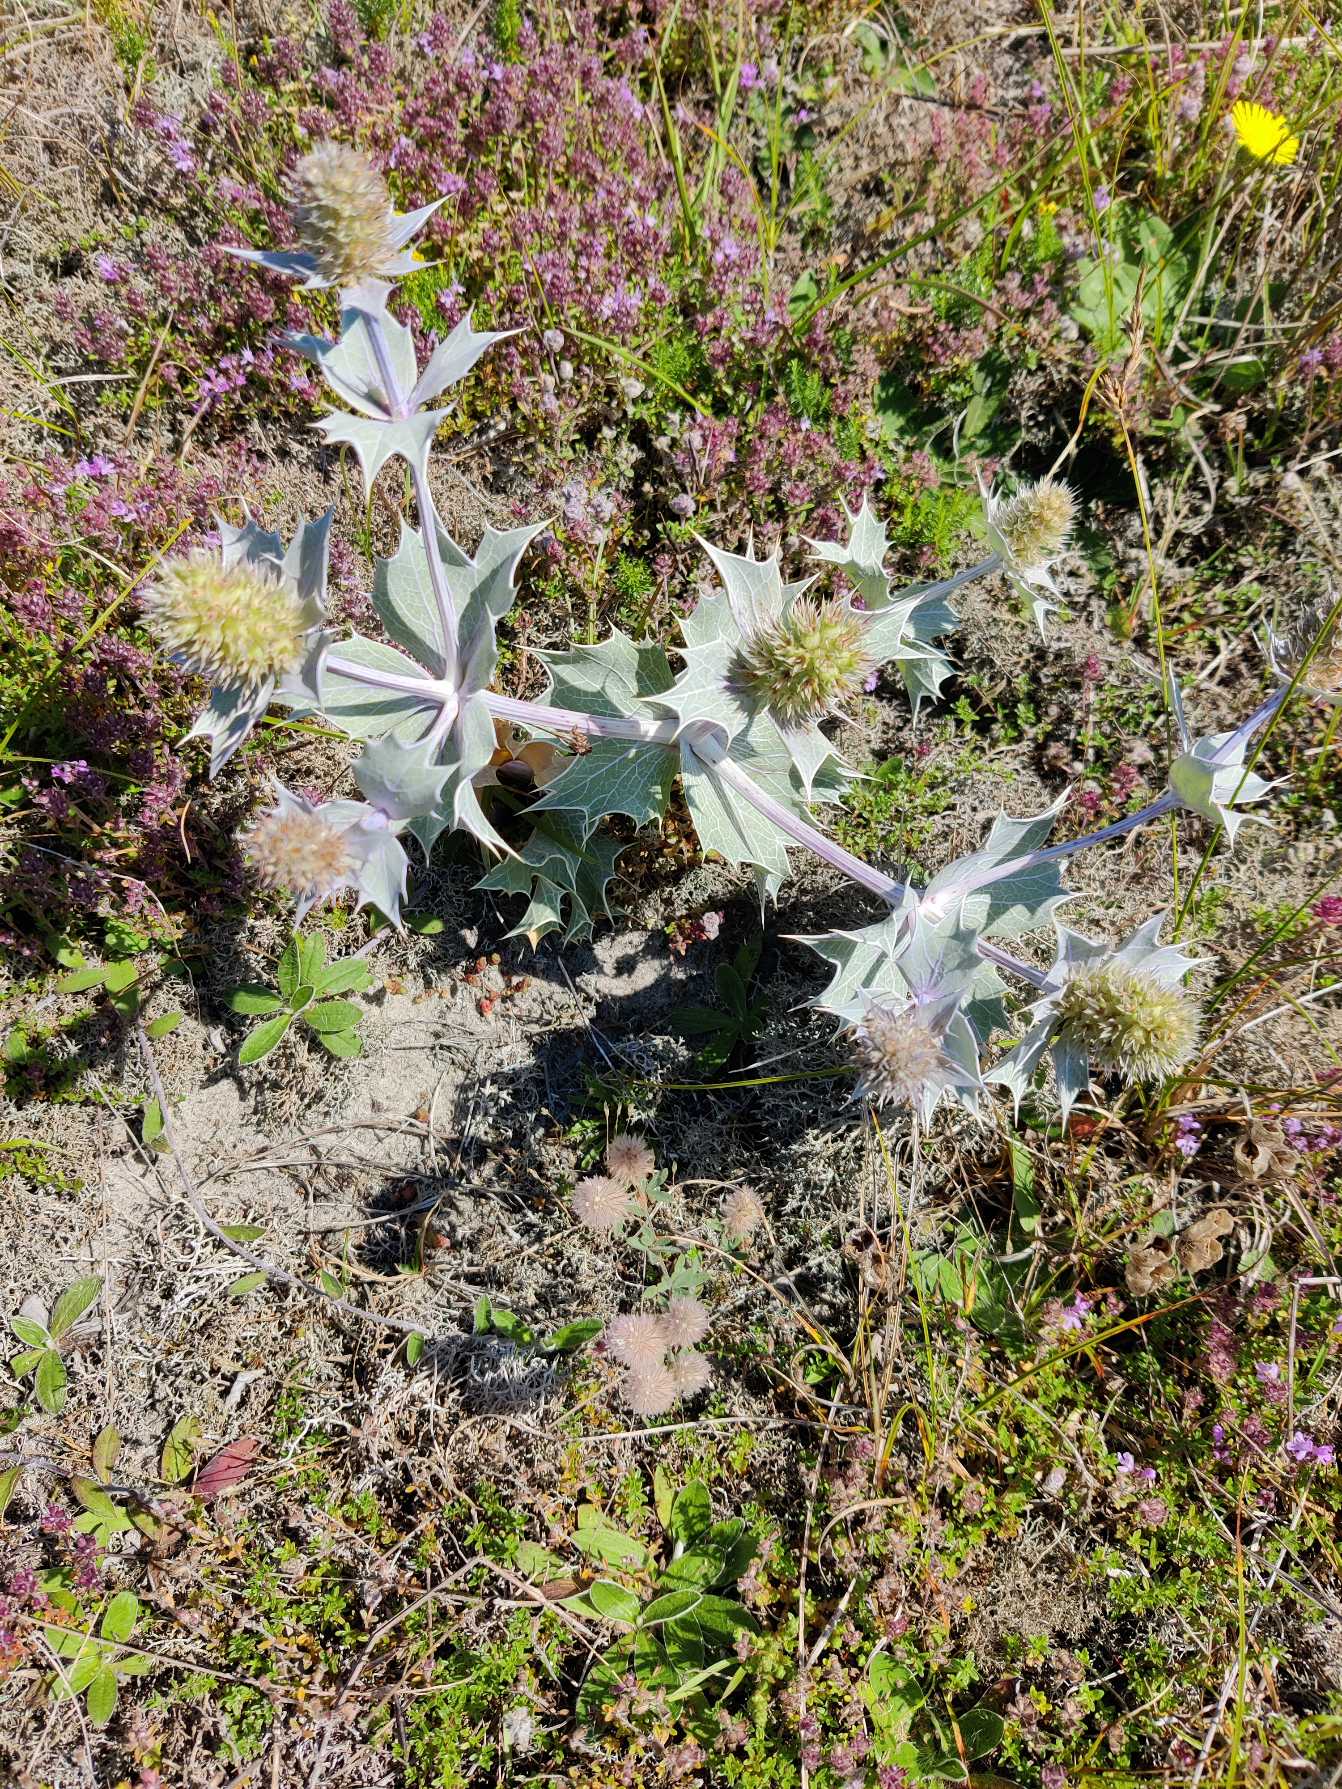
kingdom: Plantae
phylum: Tracheophyta
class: Magnoliopsida
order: Apiales
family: Apiaceae
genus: Eryngium
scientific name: Eryngium maritimum
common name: Strand-mandstro
